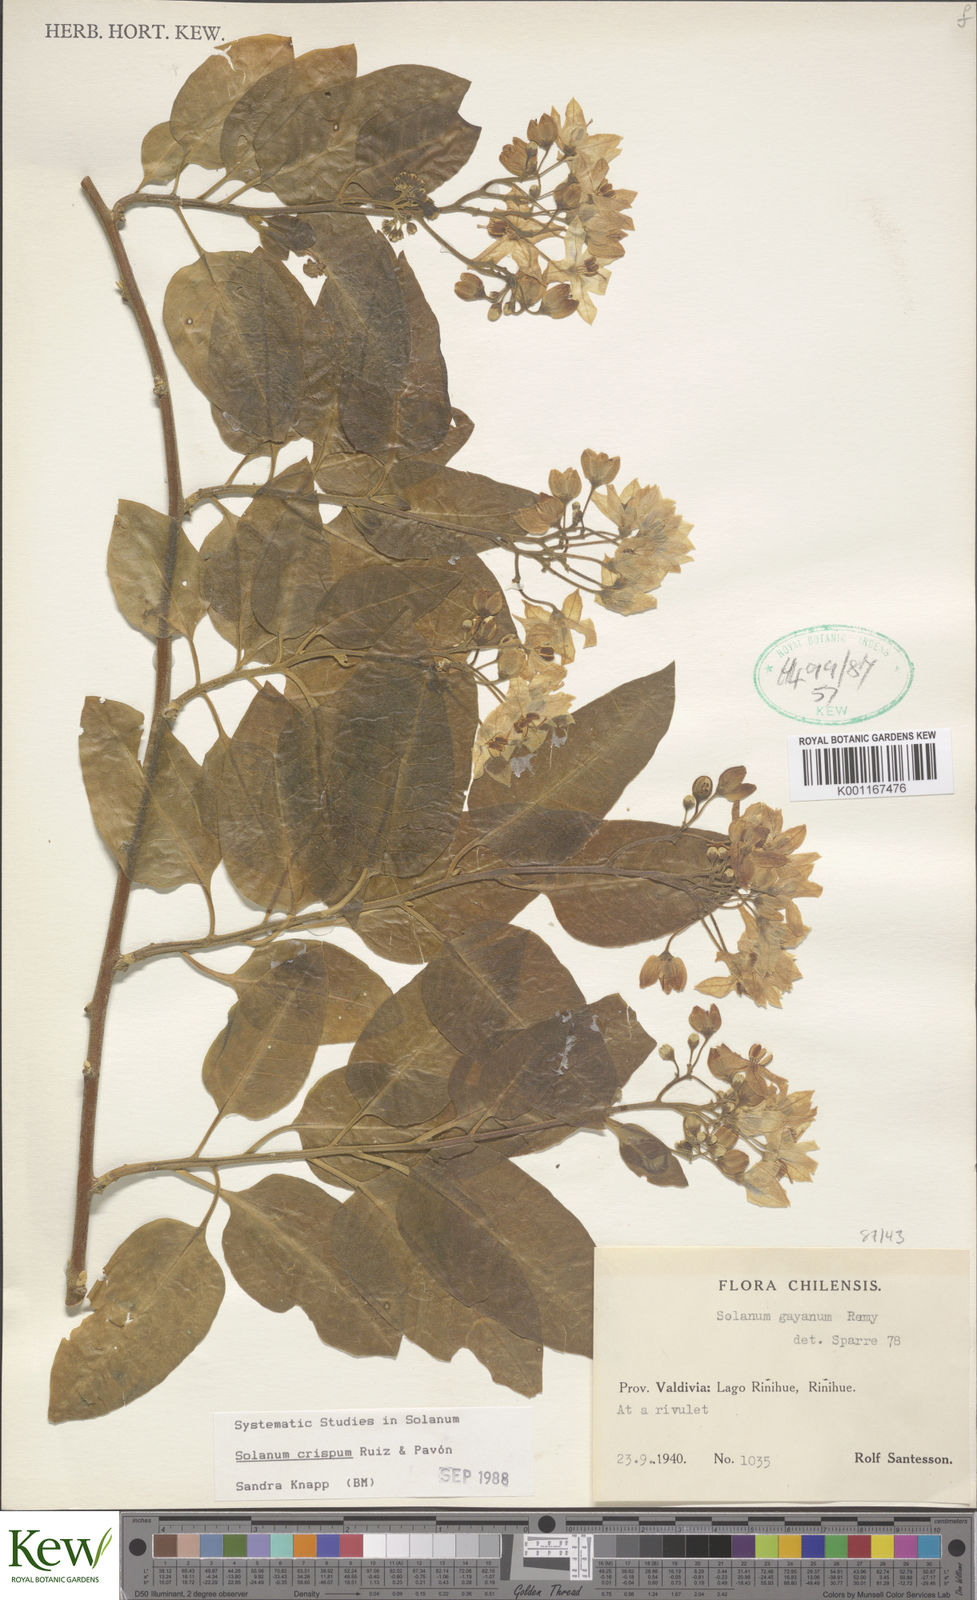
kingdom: Plantae
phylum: Tracheophyta
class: Magnoliopsida
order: Solanales
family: Solanaceae
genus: Solanum
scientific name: Solanum crispum
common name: Chilean nightshade
